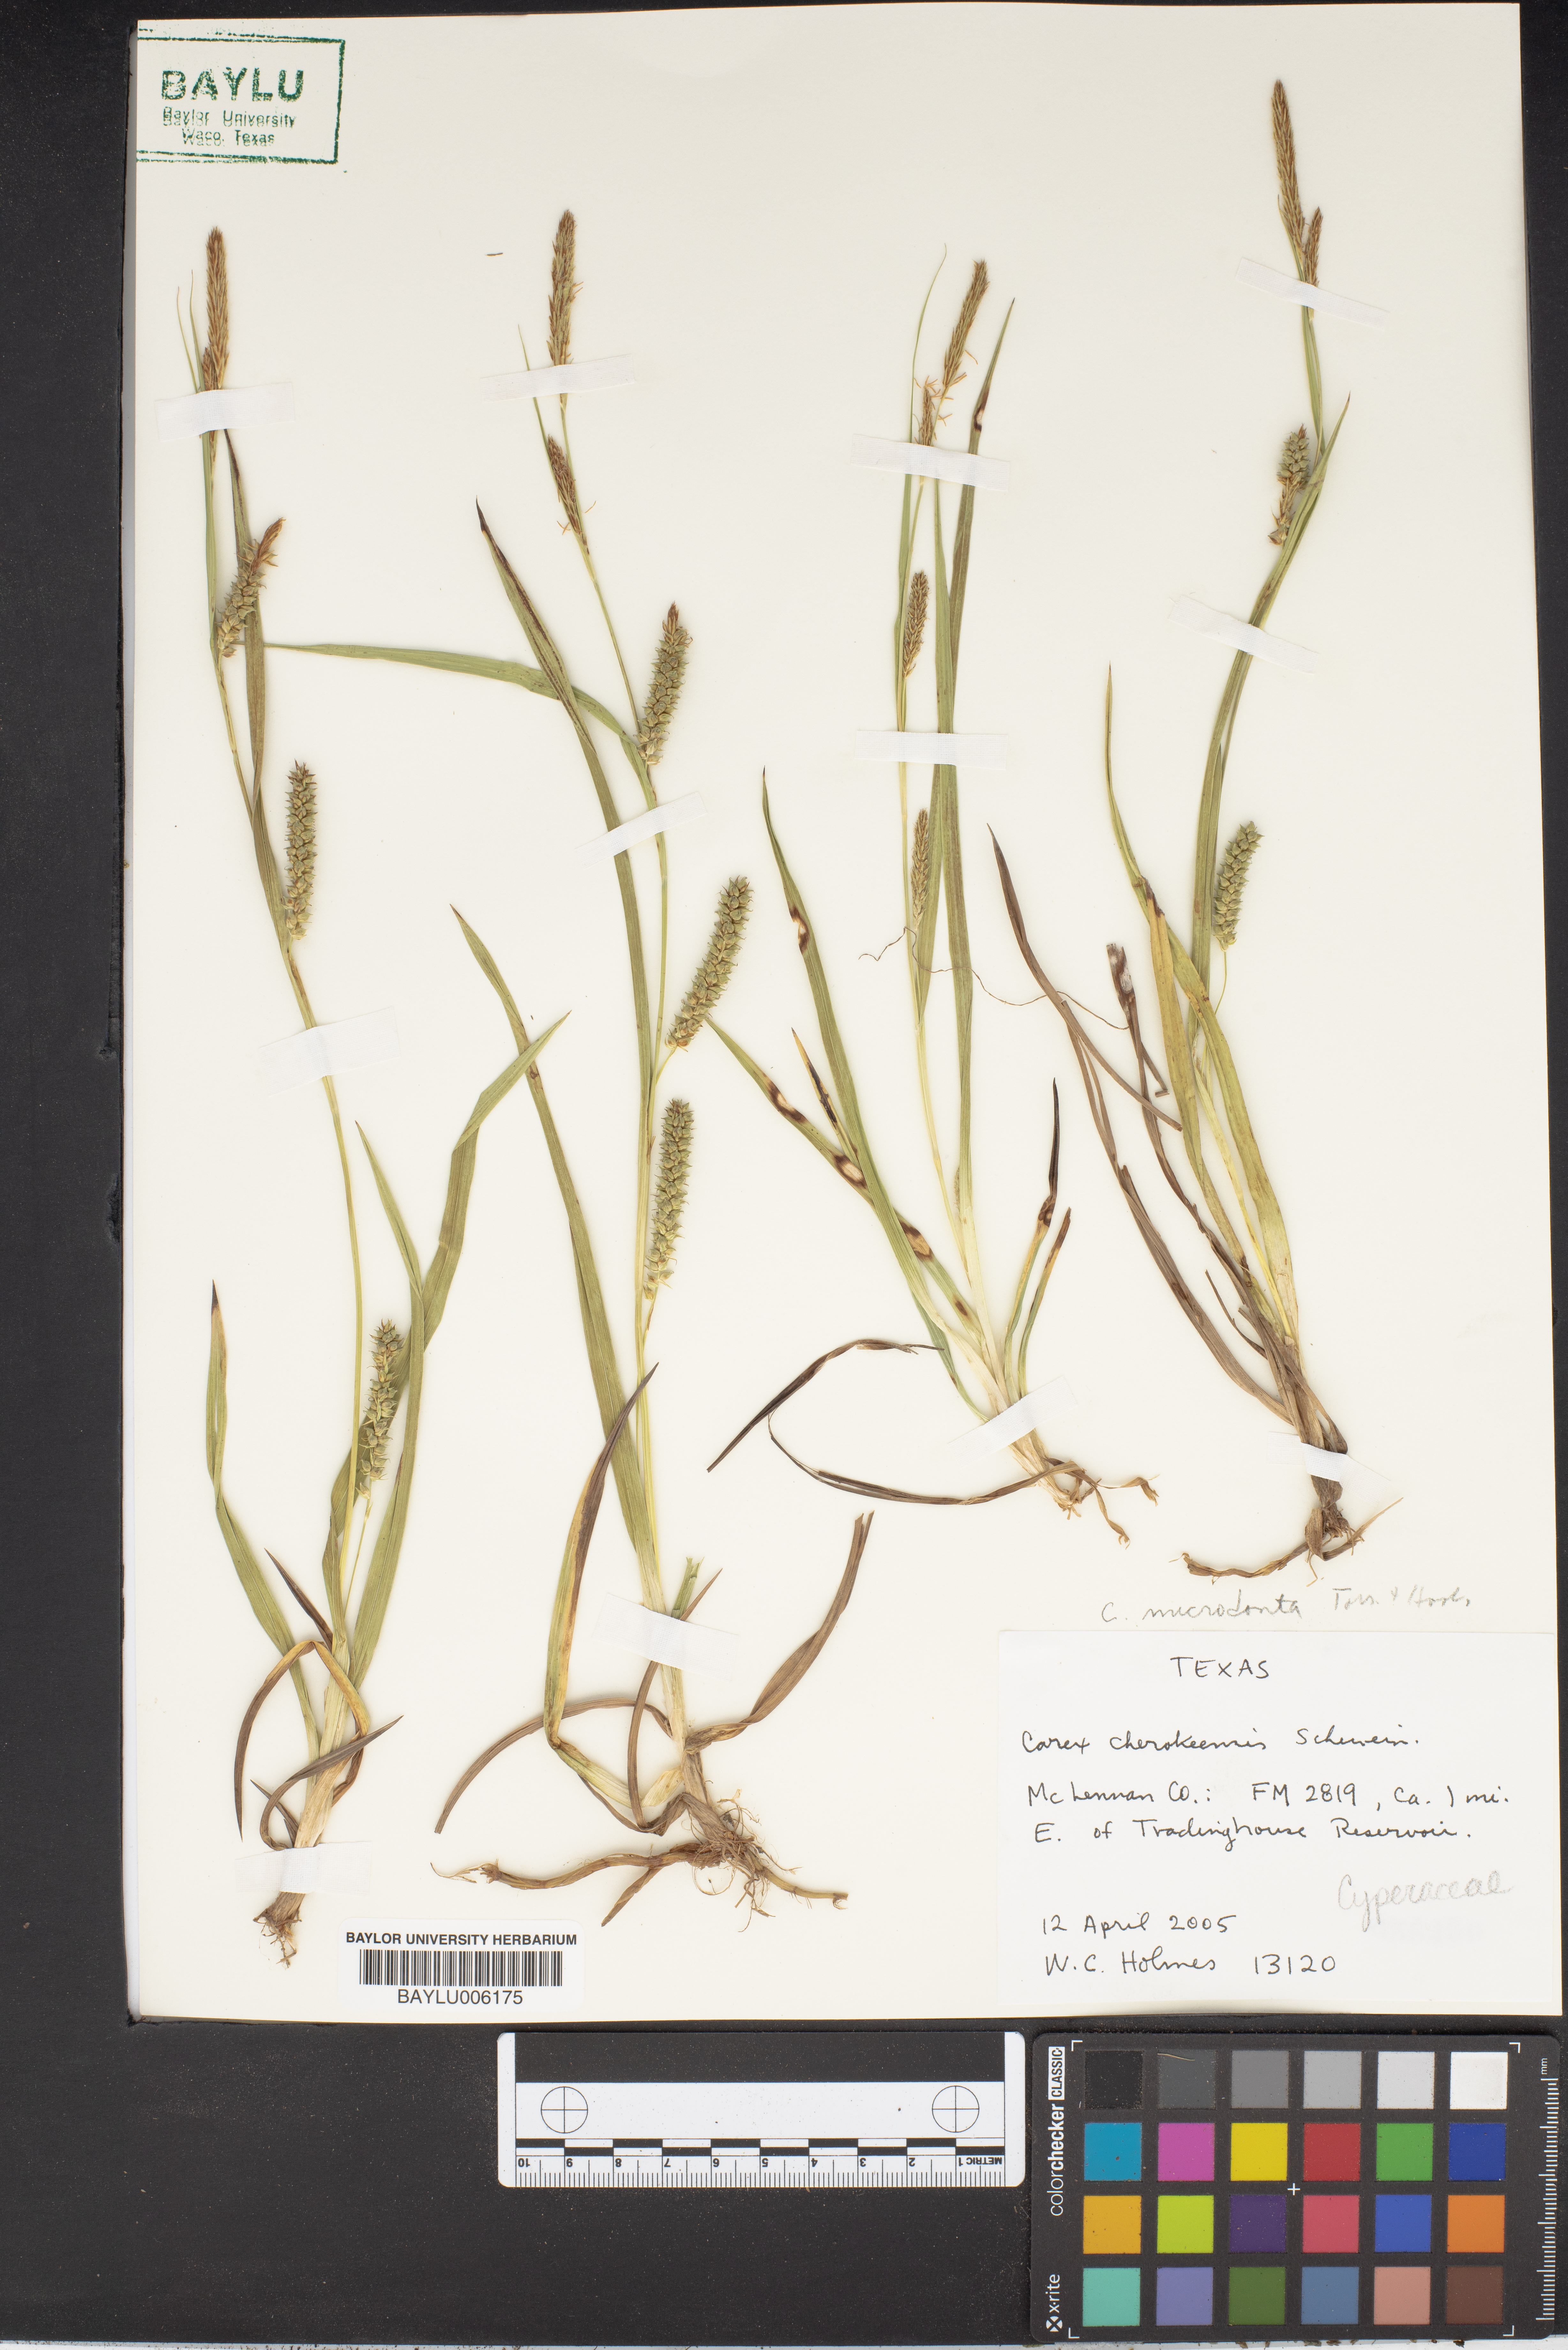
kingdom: Plantae
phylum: Tracheophyta
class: Liliopsida
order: Poales
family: Cyperaceae
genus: Carex
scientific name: Carex microdonta
